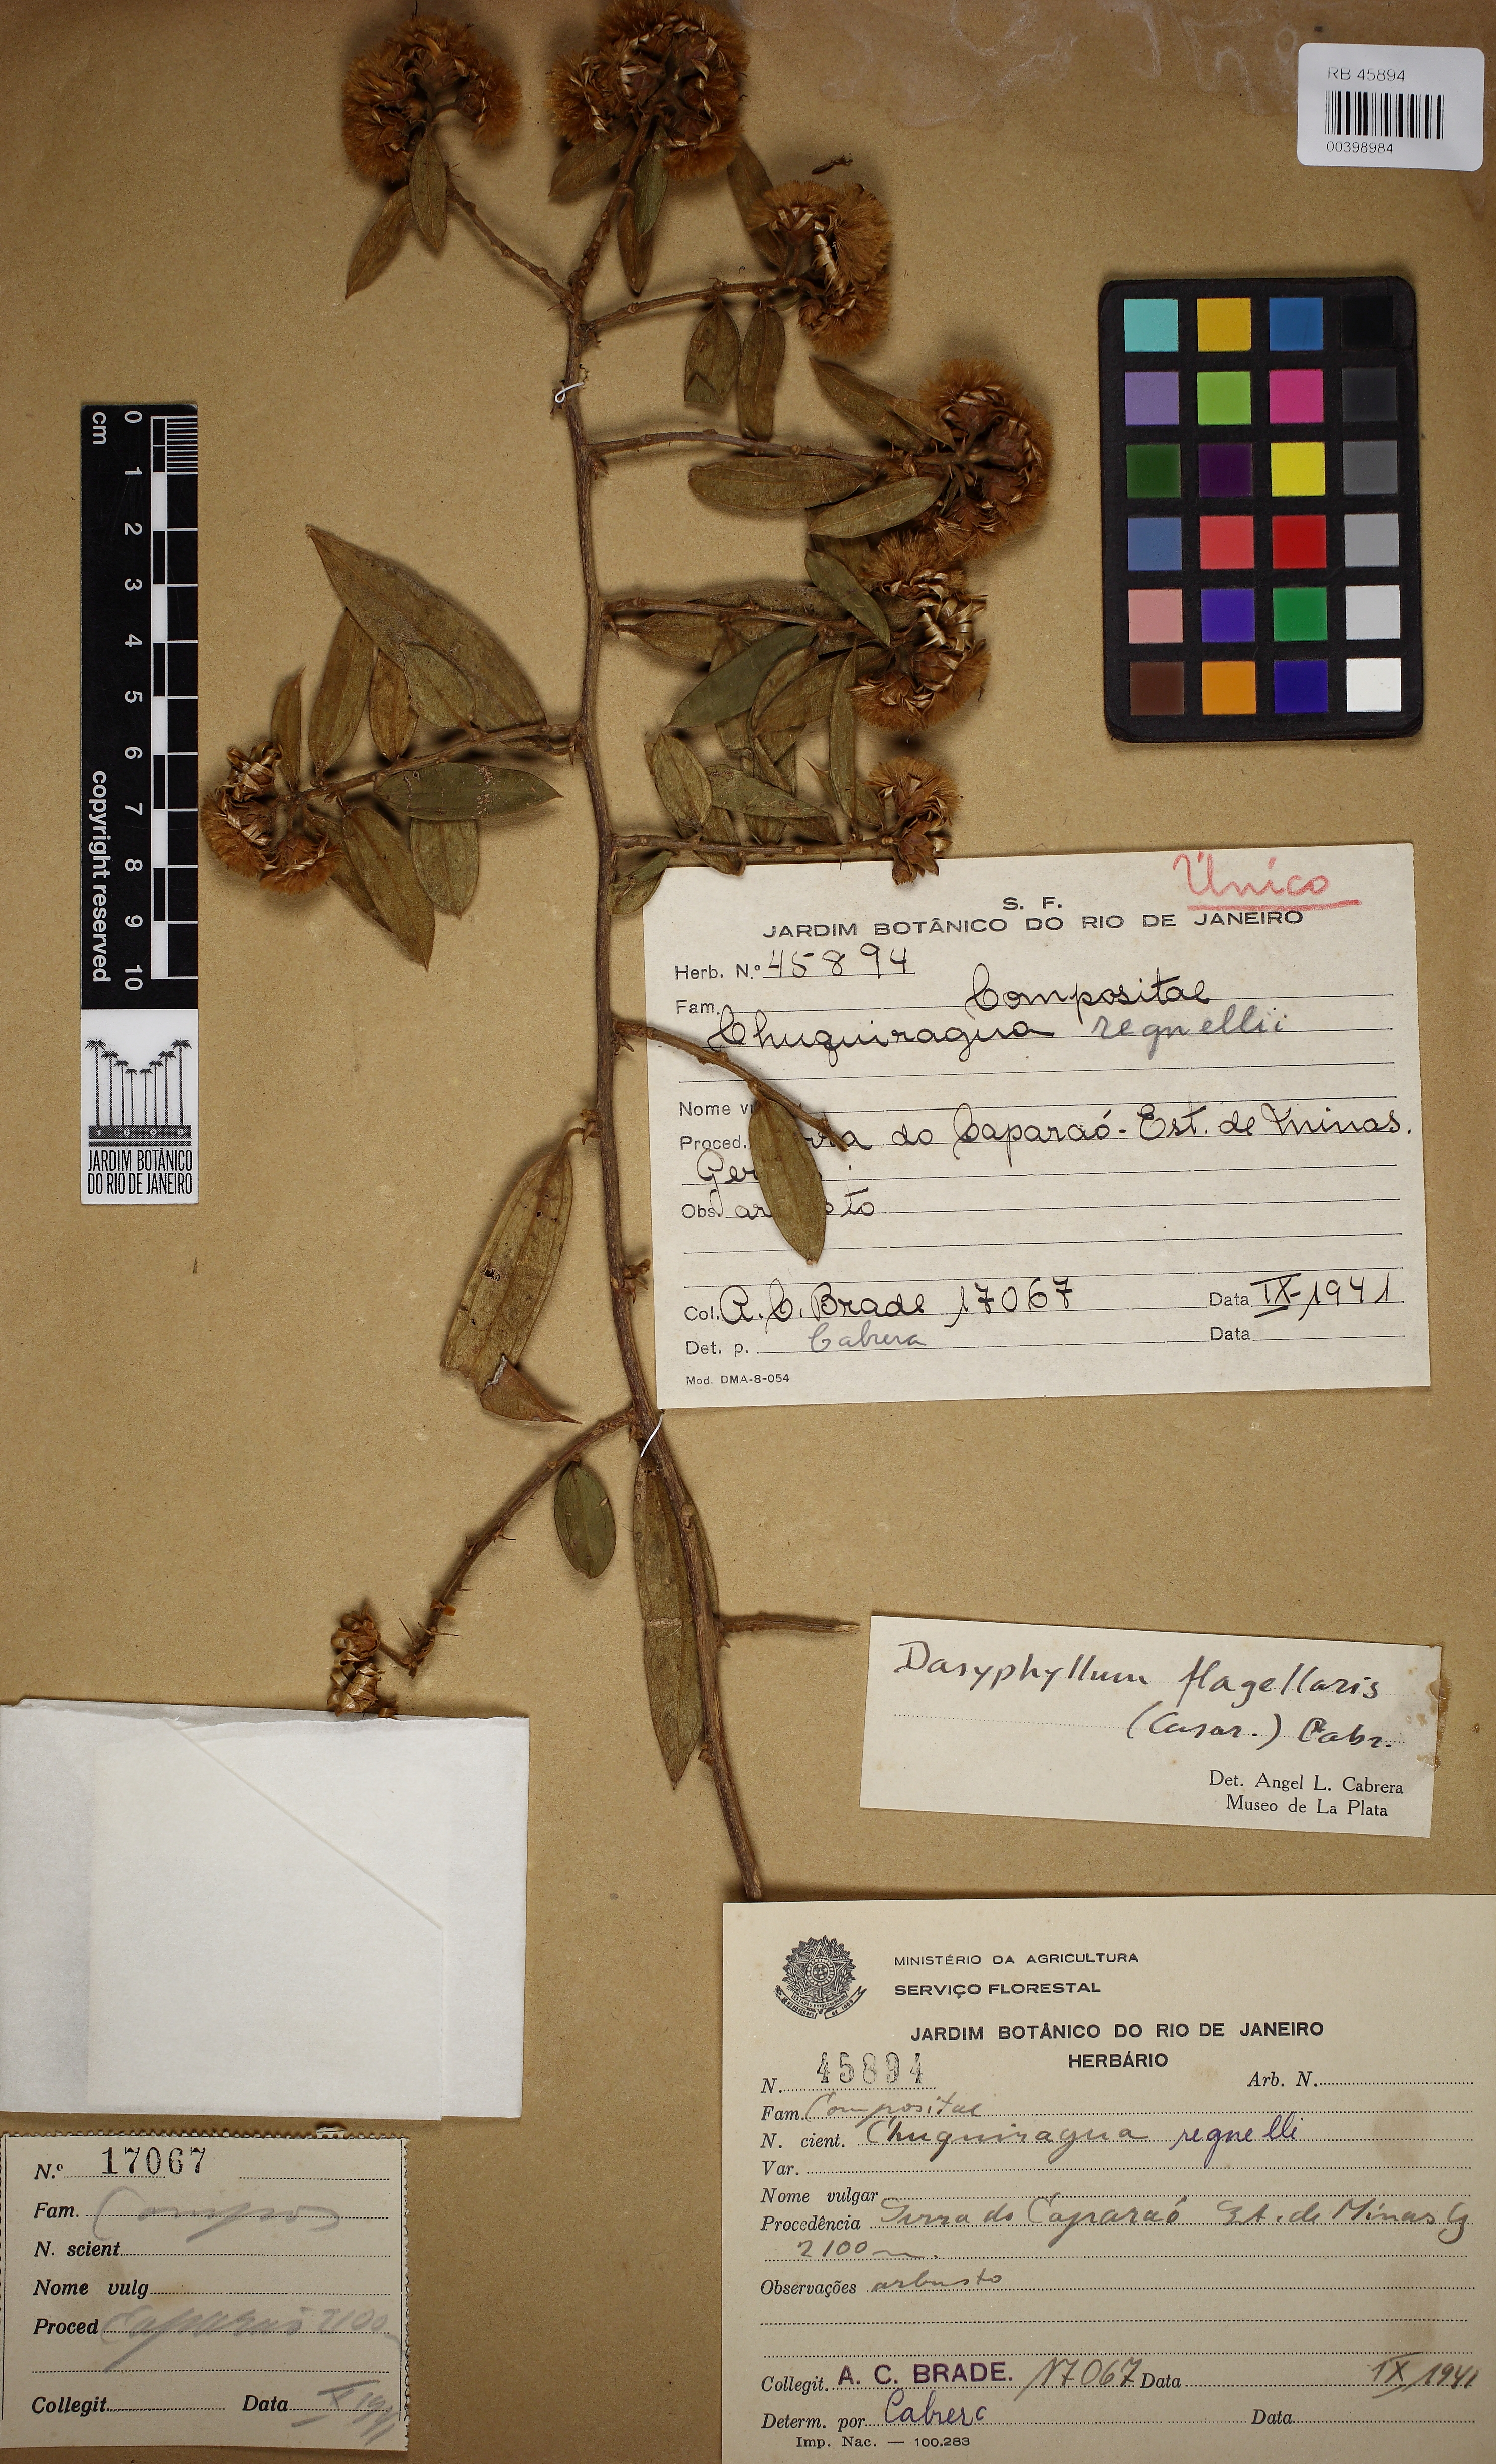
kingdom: Plantae
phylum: Tracheophyta
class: Magnoliopsida
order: Asterales
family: Asteraceae
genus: Dasyphyllum
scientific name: Dasyphyllum flagellare
